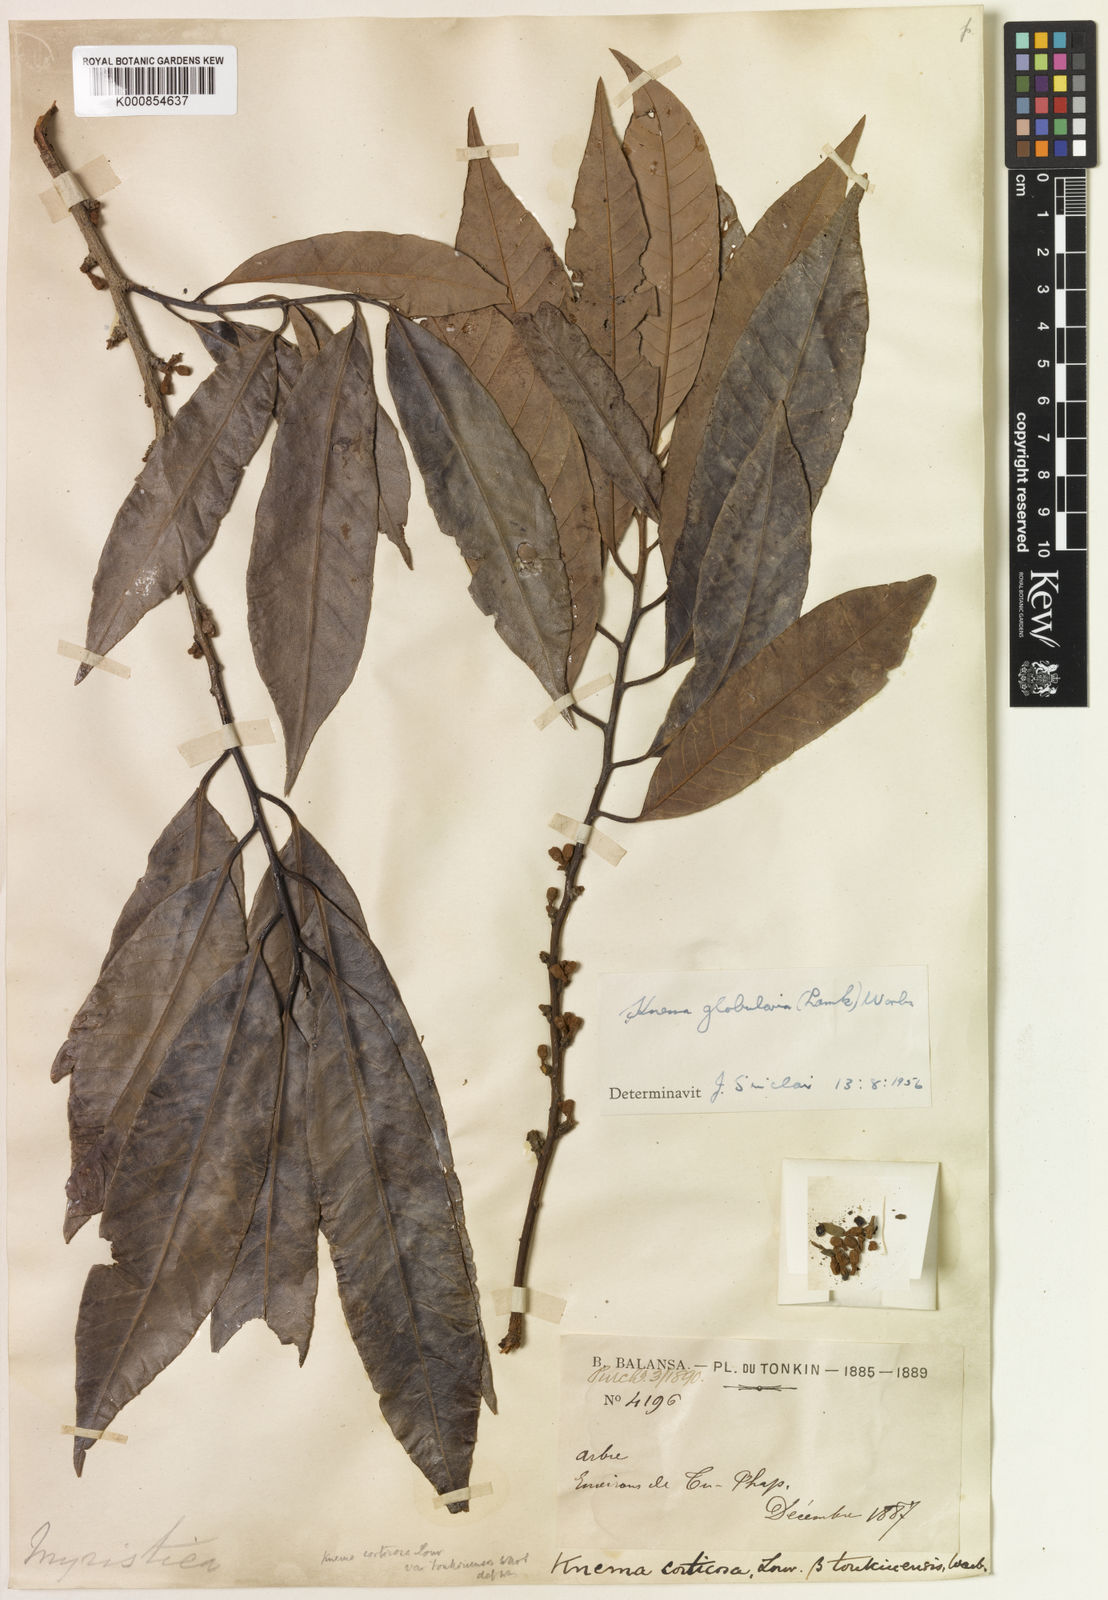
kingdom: Plantae
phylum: Tracheophyta
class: Magnoliopsida
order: Magnoliales
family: Myristicaceae
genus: Knema
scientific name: Knema globularia
